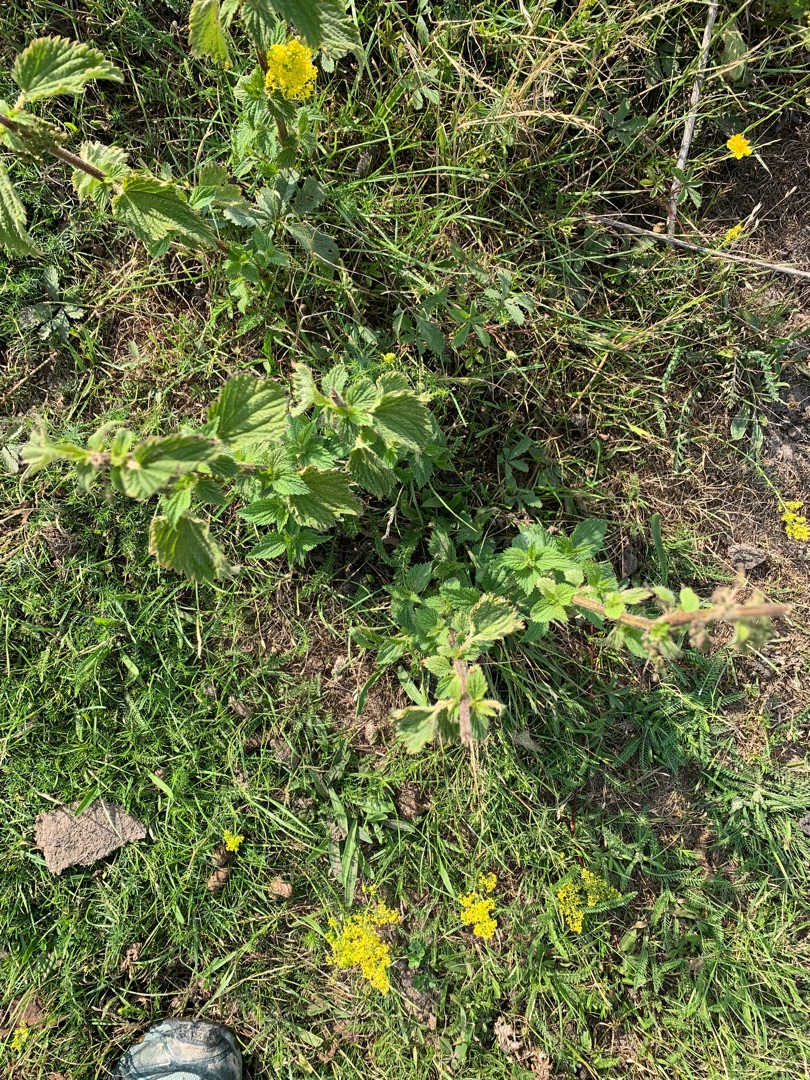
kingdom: Plantae
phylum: Tracheophyta
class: Magnoliopsida
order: Rosales
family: Urticaceae
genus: Urtica
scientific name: Urtica dioica
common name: Stor nælde
